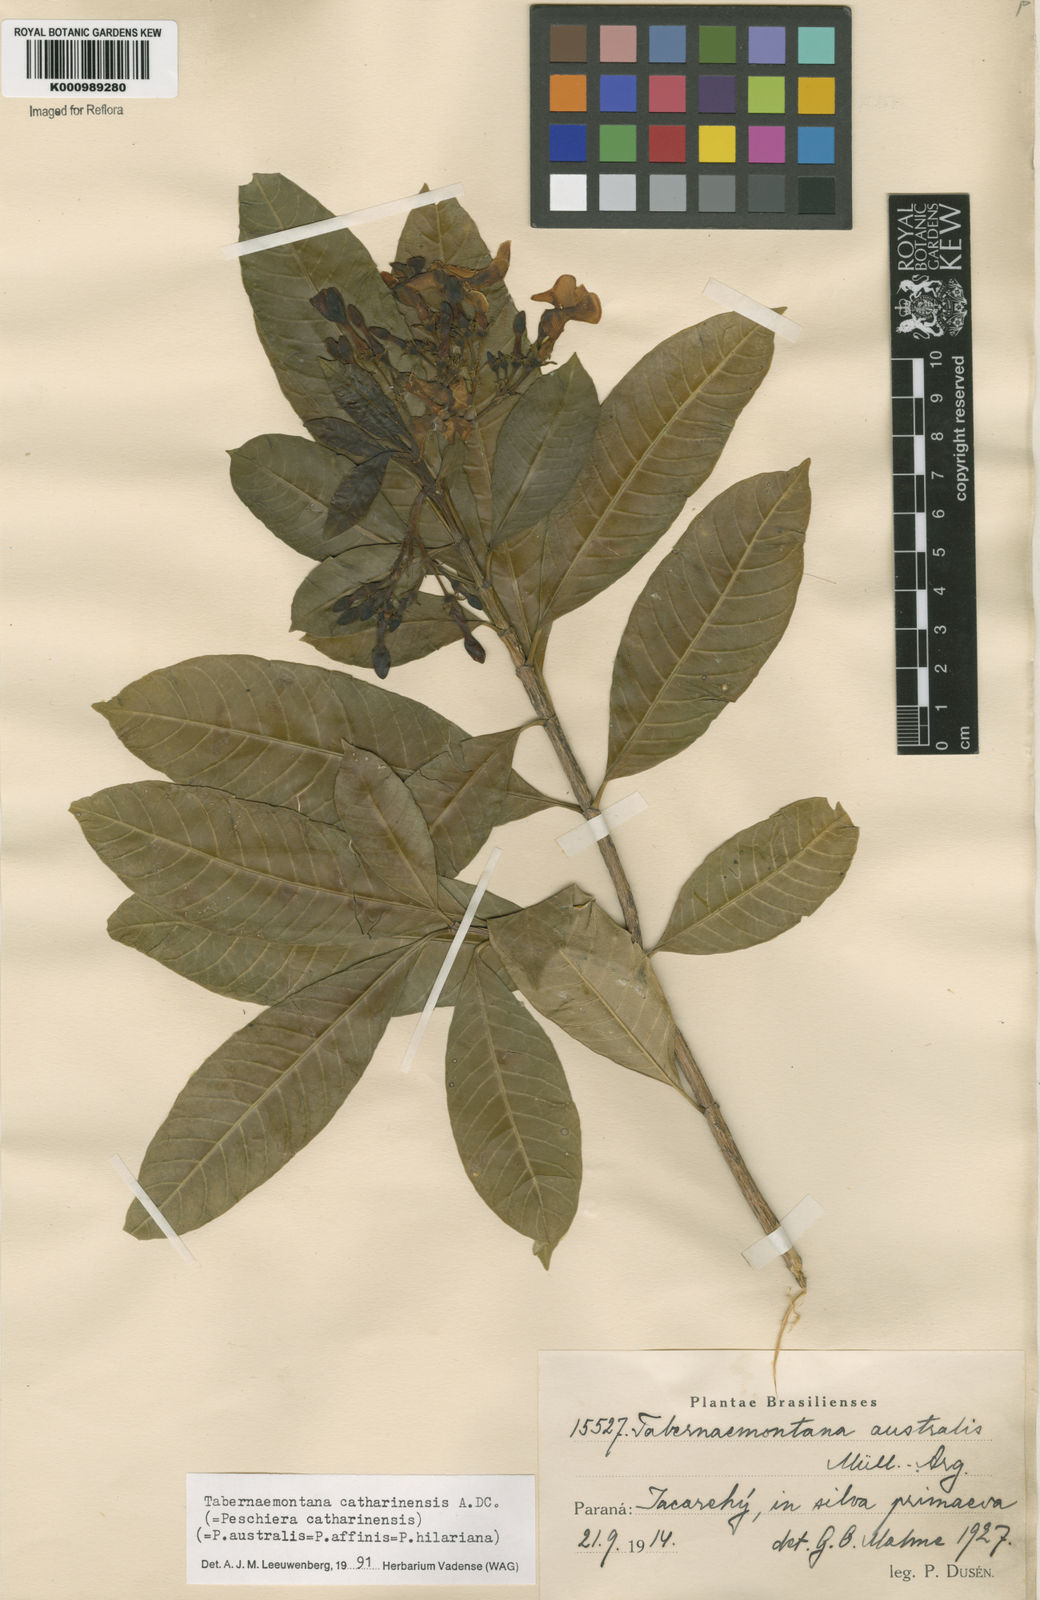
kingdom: Plantae
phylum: Tracheophyta
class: Magnoliopsida
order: Gentianales
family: Apocynaceae
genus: Tabernaemontana
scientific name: Tabernaemontana catharinensis
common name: Pinwheel-flower
